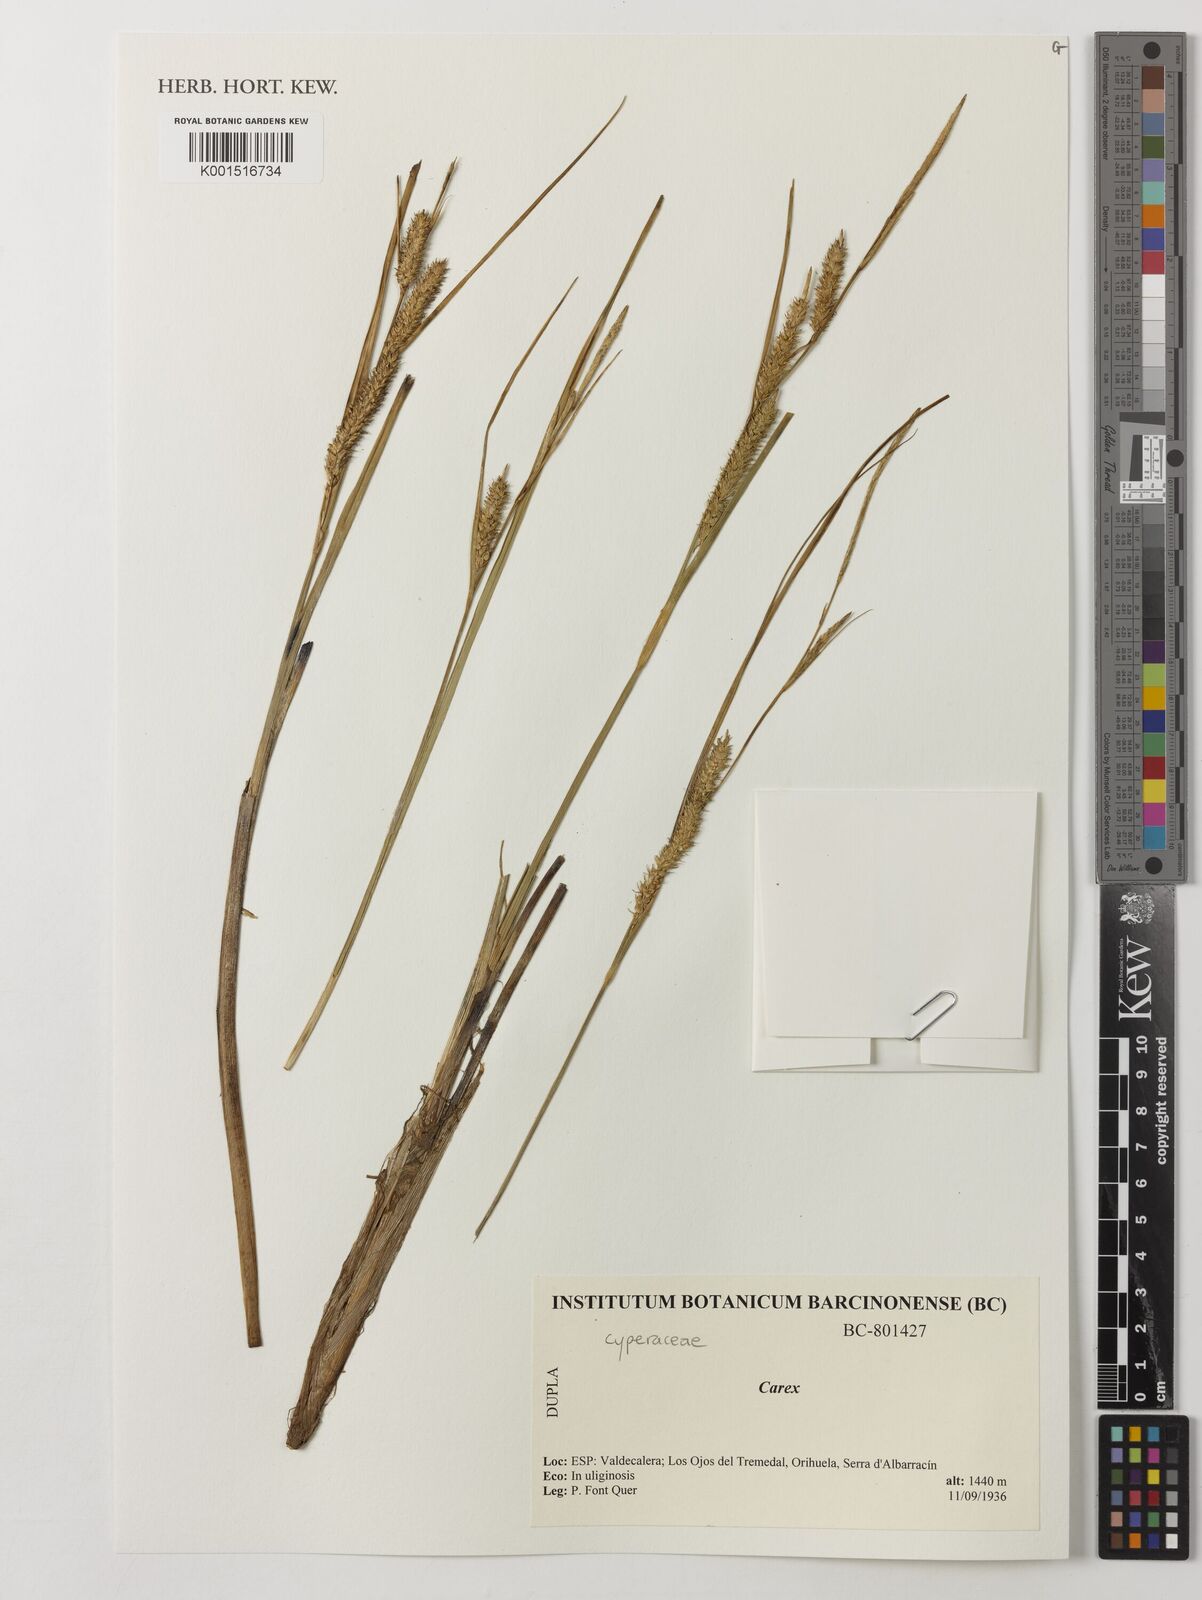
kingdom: Plantae
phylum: Tracheophyta
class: Liliopsida
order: Poales
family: Cyperaceae
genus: Carex
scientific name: Carex
